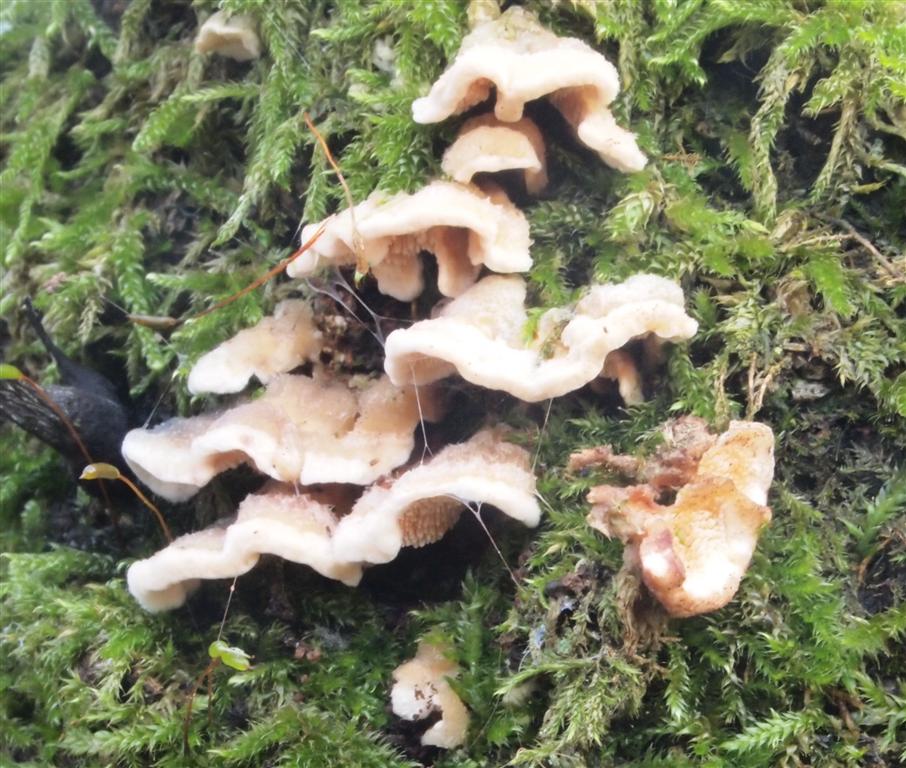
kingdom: Fungi
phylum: Basidiomycota
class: Agaricomycetes
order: Polyporales
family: Steccherinaceae
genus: Steccherinum
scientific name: Steccherinum ochraceum
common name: almindelig skønpig
